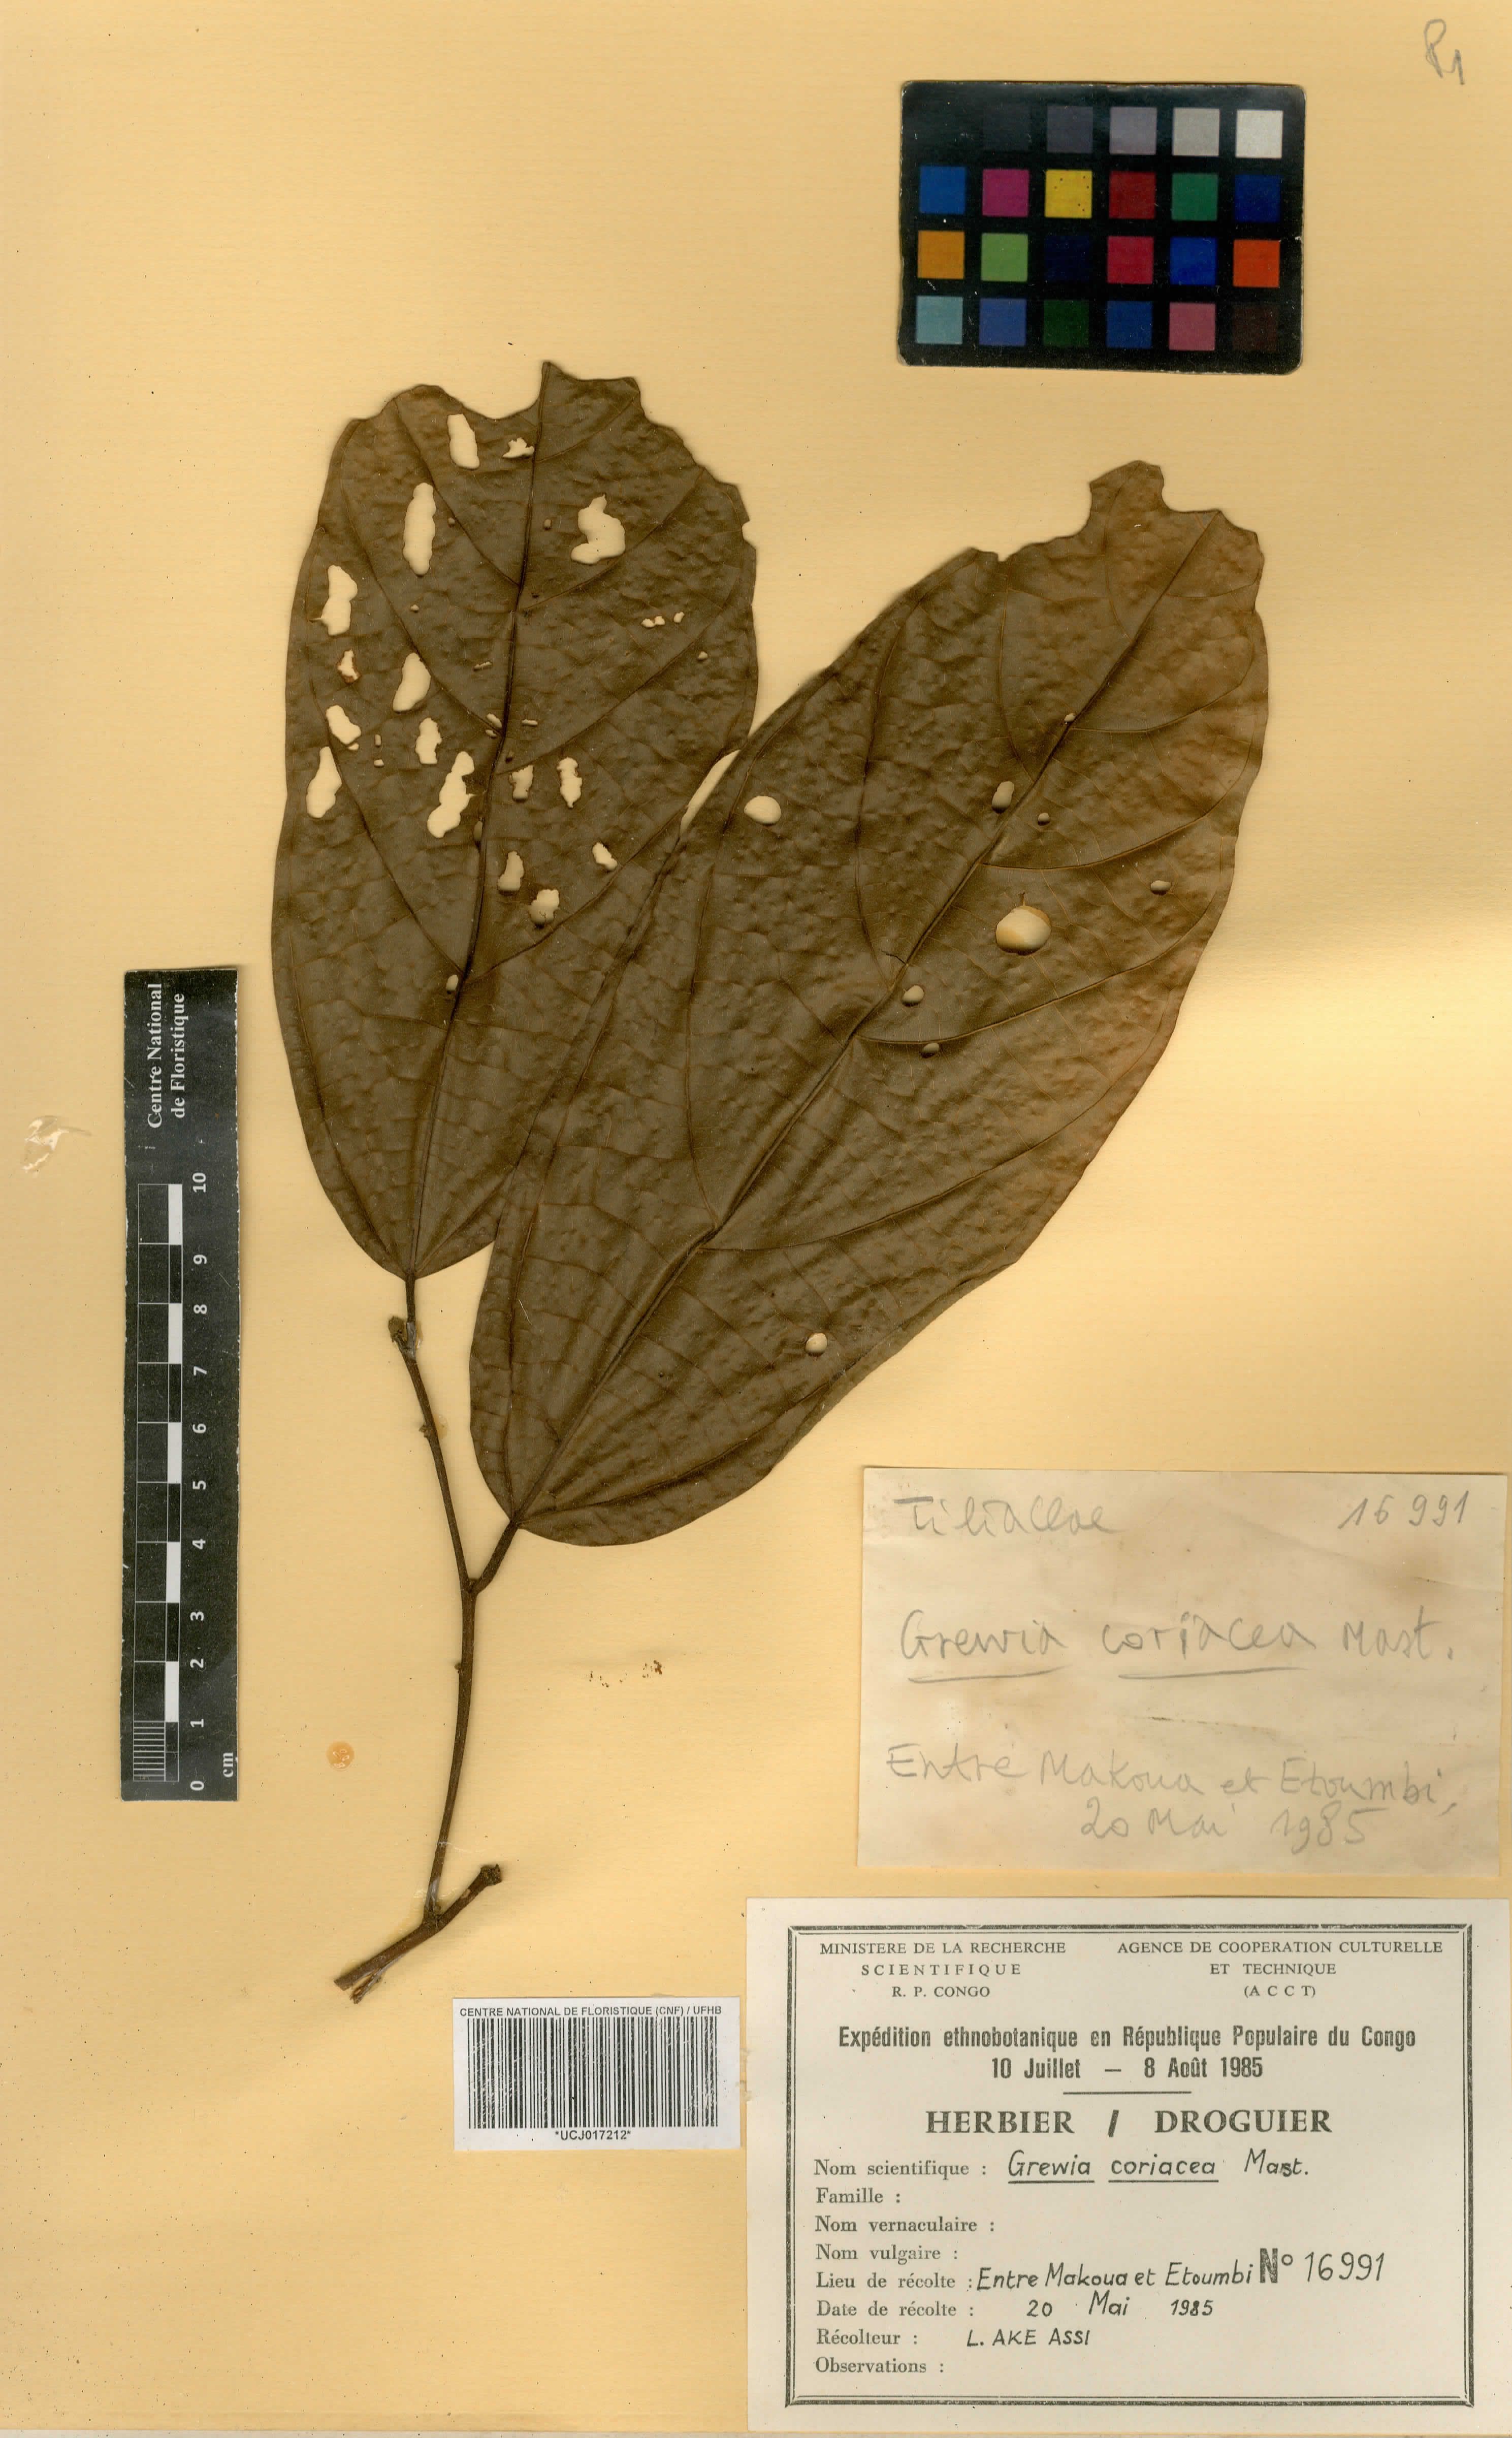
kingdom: Plantae
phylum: Tracheophyta
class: Magnoliopsida
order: Malvales
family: Malvaceae
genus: Microcos
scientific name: Microcos coriacea
